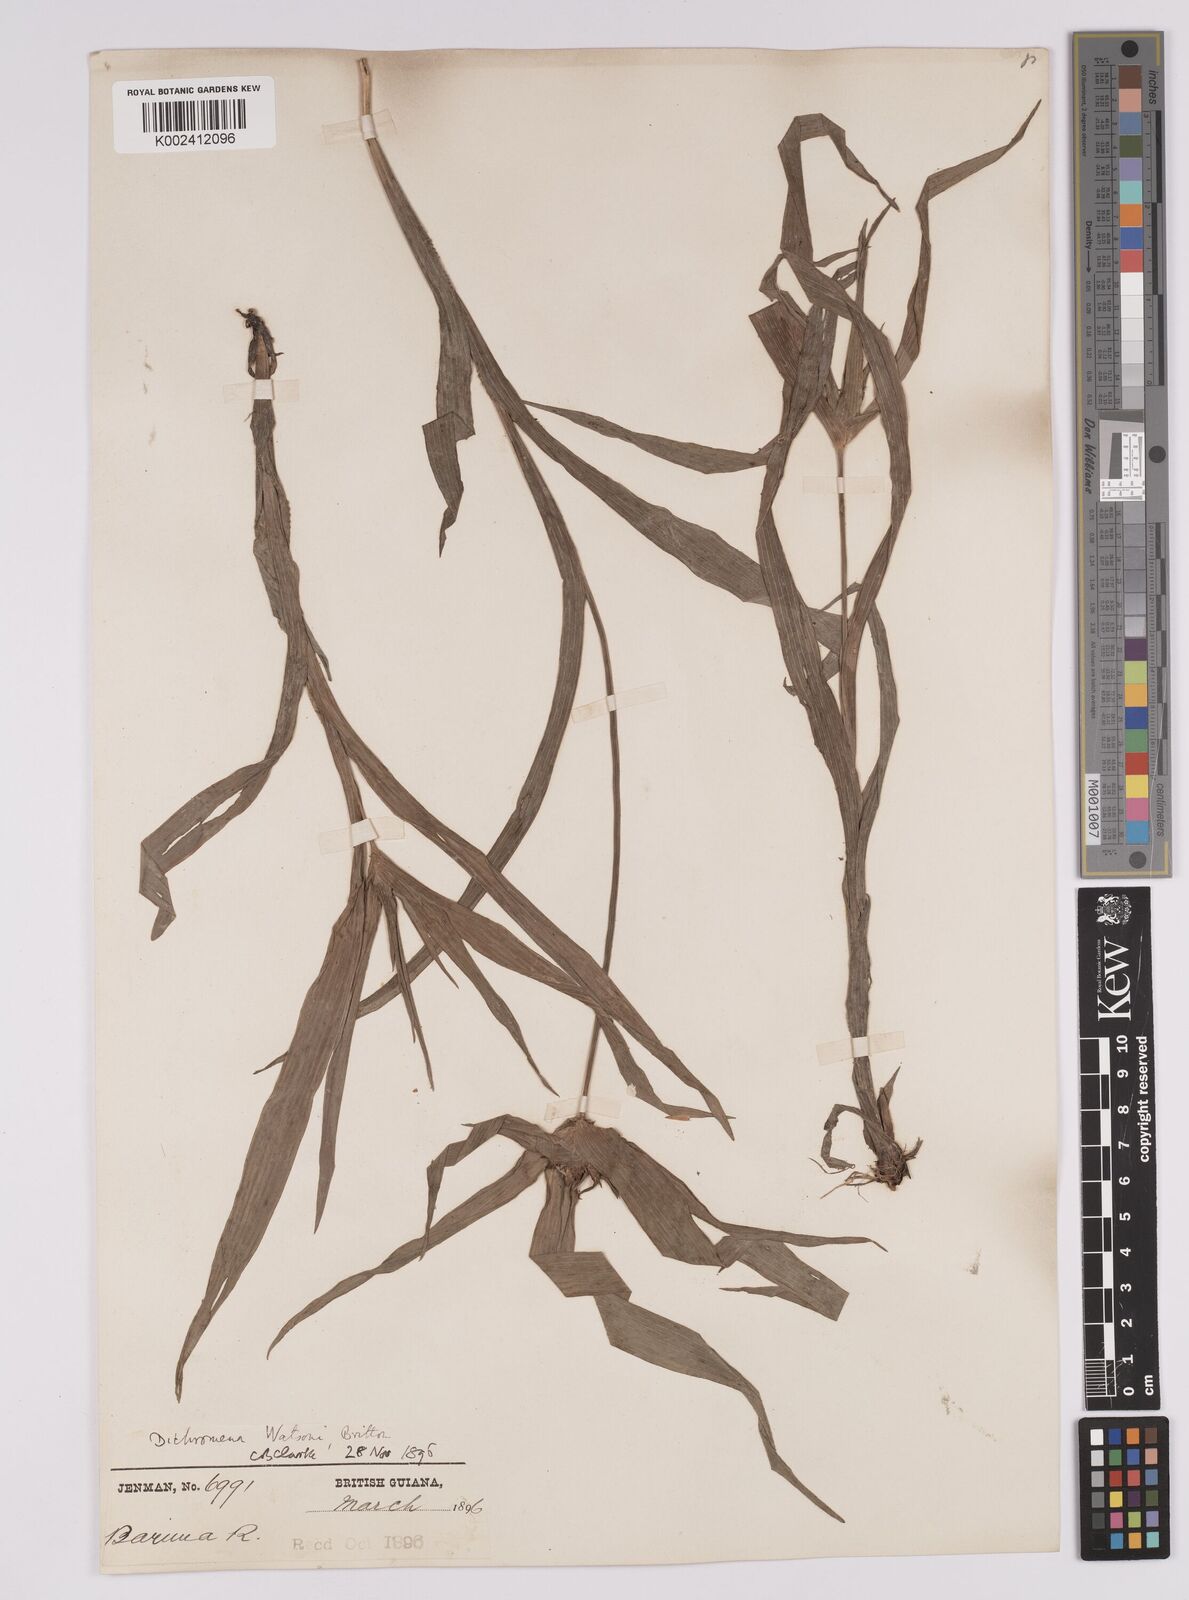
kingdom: Plantae
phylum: Tracheophyta
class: Liliopsida
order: Poales
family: Cyperaceae
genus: Rhynchospora
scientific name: Rhynchospora watsonii
